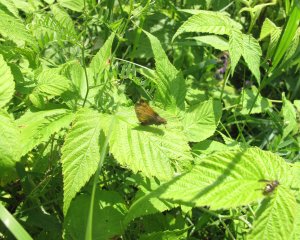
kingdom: Animalia
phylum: Arthropoda
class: Insecta
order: Lepidoptera
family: Hesperiidae
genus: Lon
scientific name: Lon hobomok
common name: Hobomok Skipper
